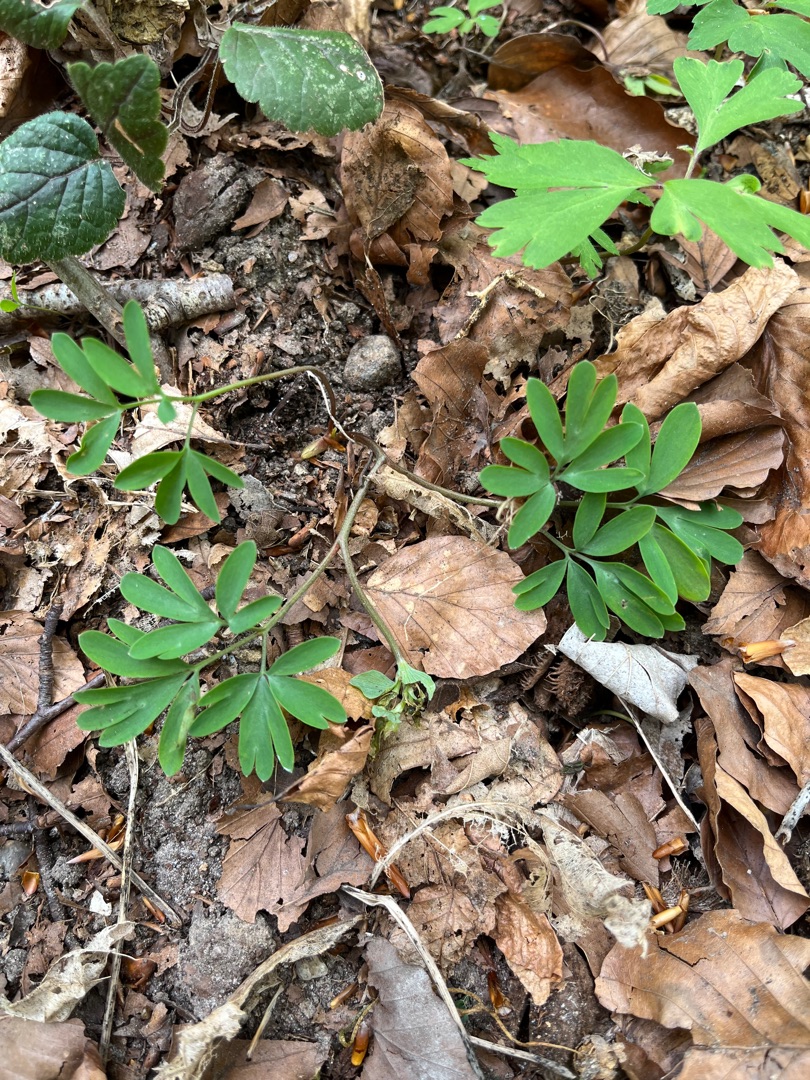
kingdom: Plantae
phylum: Tracheophyta
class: Magnoliopsida
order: Ranunculales
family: Papaveraceae
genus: Corydalis
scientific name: Corydalis intermedia
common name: Liden lærkespore
